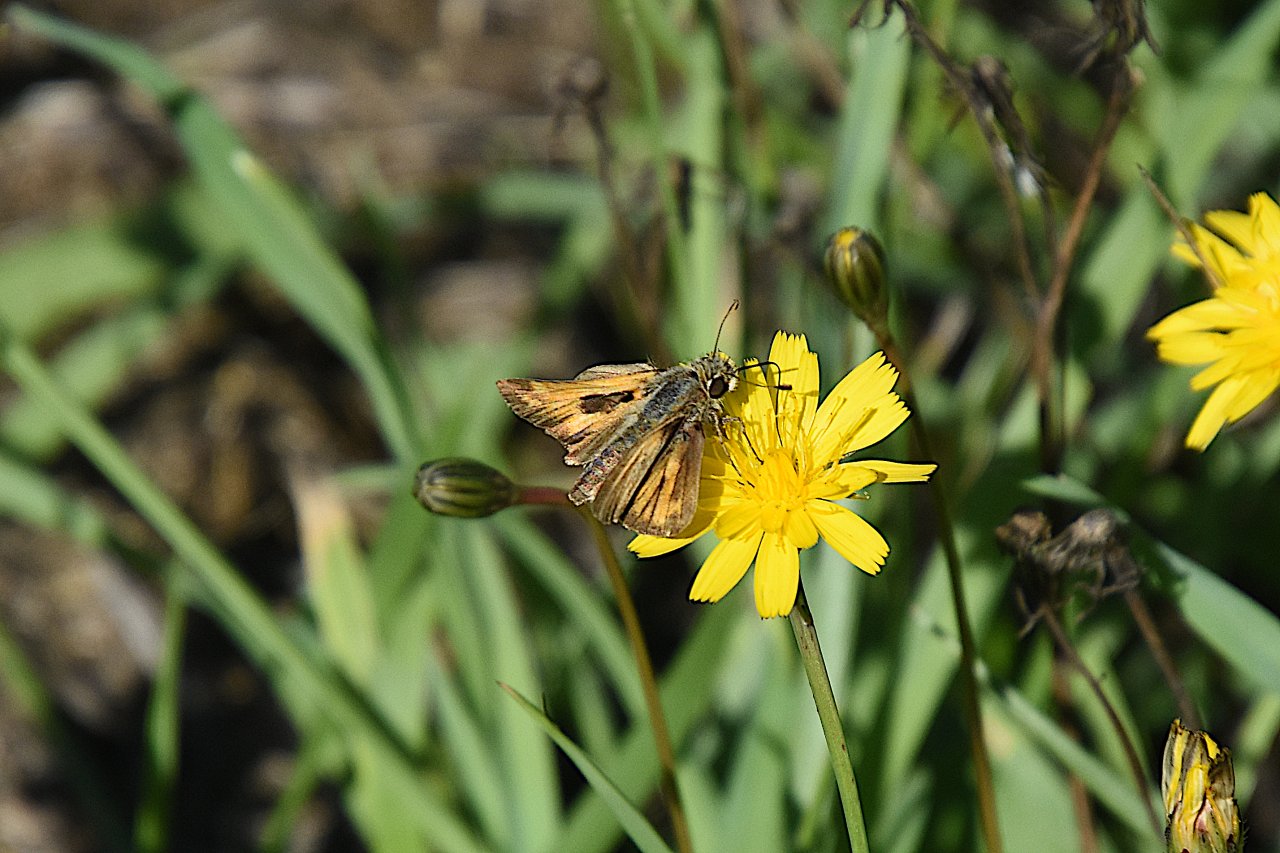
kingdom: Animalia
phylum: Arthropoda
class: Insecta
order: Lepidoptera
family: Hesperiidae
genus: Atalopedes
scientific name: Atalopedes campestris
